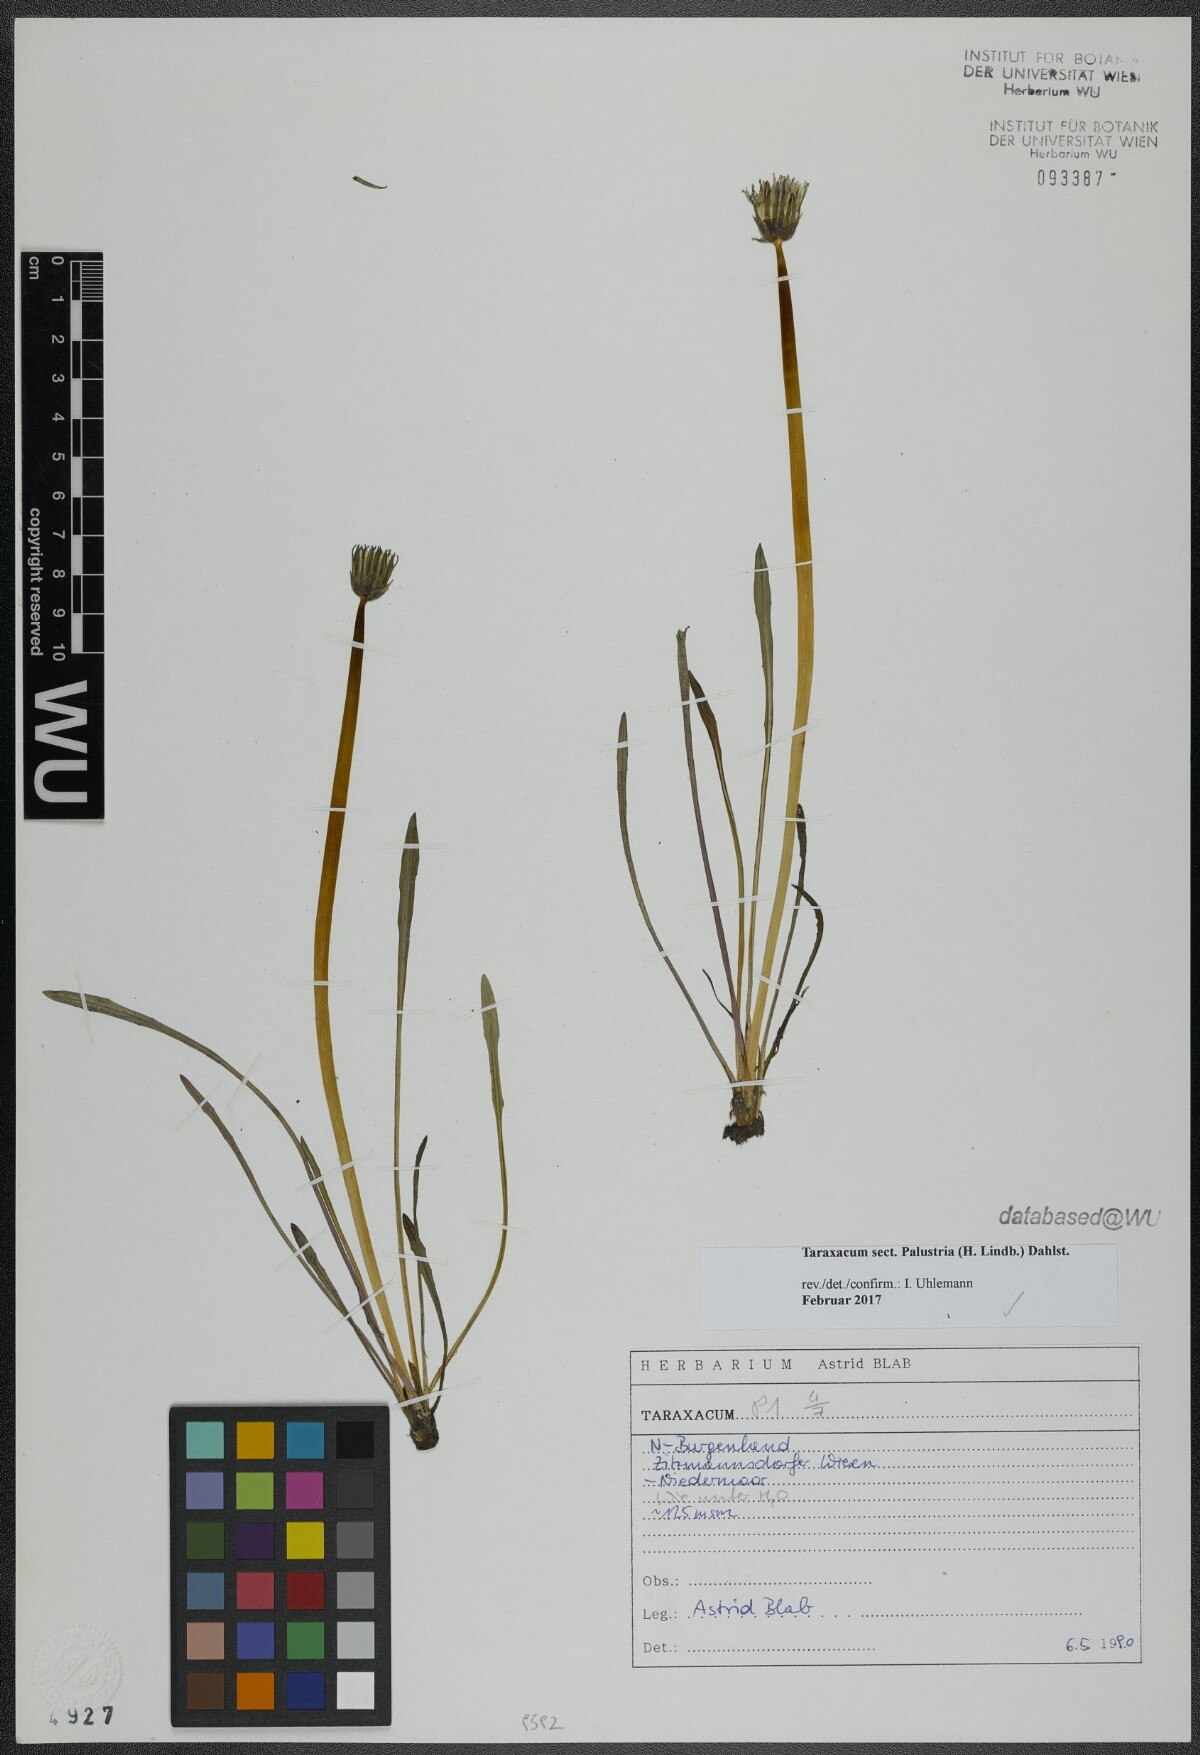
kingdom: Plantae
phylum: Tracheophyta
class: Magnoliopsida
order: Asterales
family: Asteraceae
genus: Taraxacum
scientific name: Taraxacum
